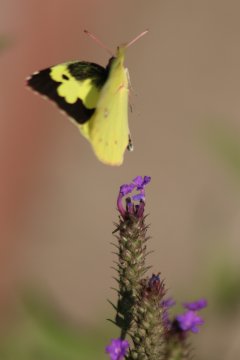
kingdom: Animalia
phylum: Arthropoda
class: Insecta
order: Lepidoptera
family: Pieridae
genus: Zerene
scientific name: Zerene cesonia
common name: Southern Dogface
